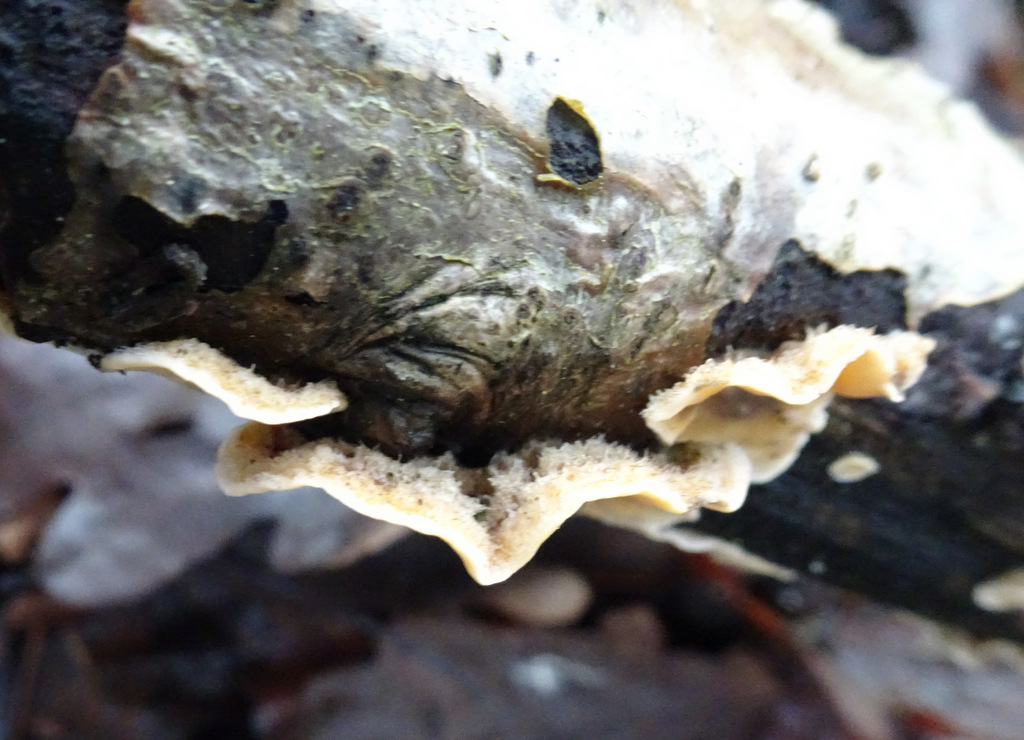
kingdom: Fungi
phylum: Basidiomycota
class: Agaricomycetes
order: Russulales
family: Stereaceae
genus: Stereum
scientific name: Stereum hirsutum
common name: håret lædersvamp
